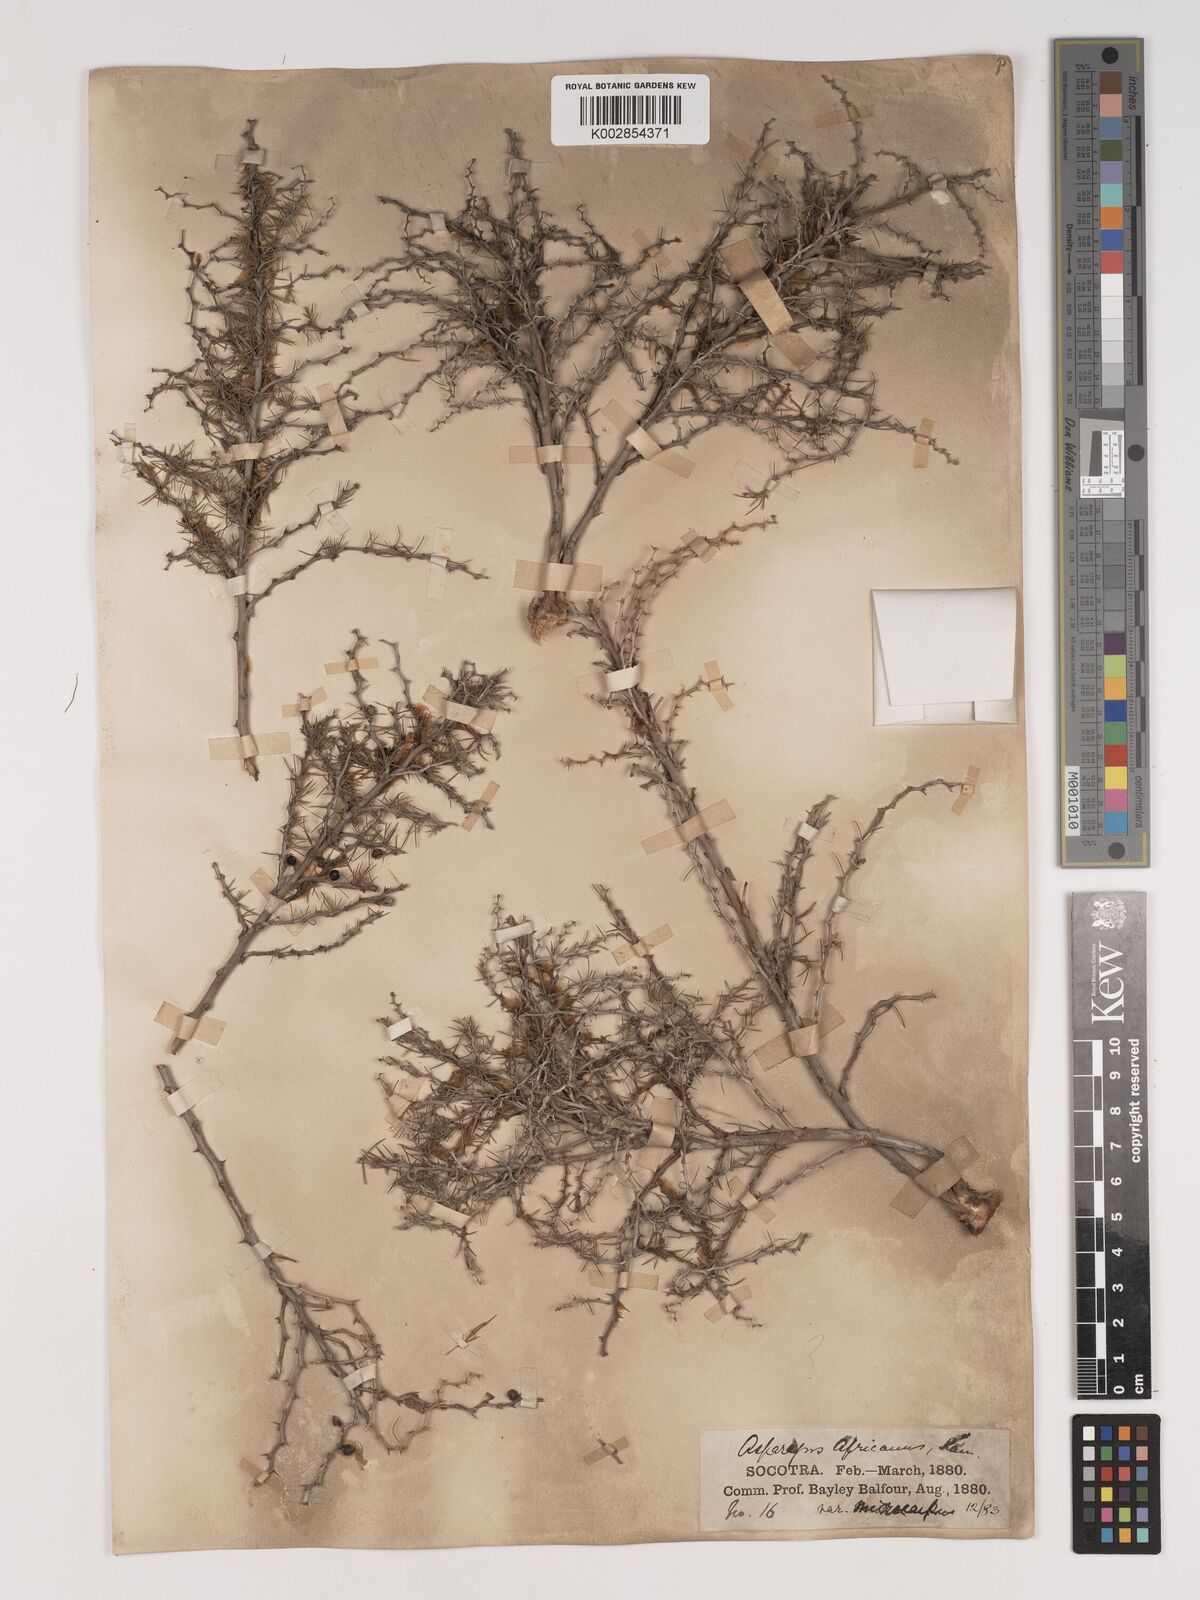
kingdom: Plantae
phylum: Tracheophyta
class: Liliopsida
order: Asparagales
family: Asparagaceae
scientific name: Asparagaceae
